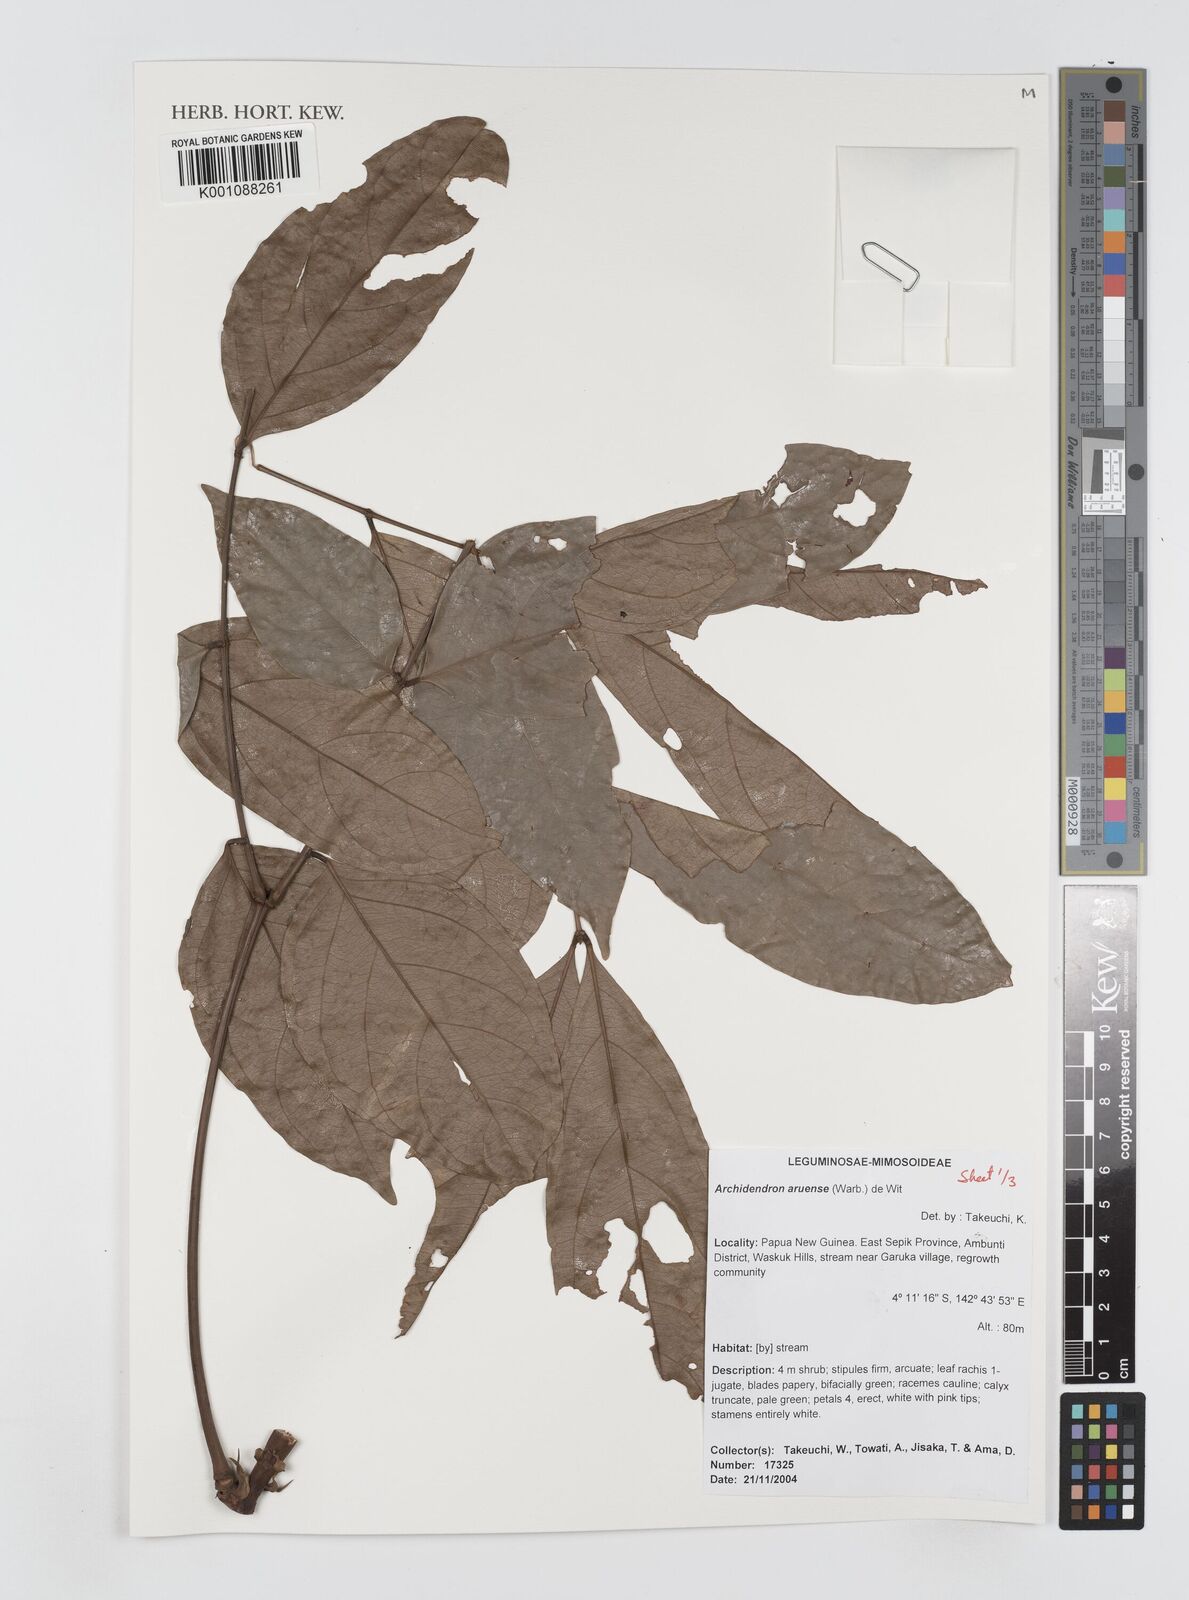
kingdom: Plantae
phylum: Tracheophyta
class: Magnoliopsida
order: Fabales
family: Fabaceae
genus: Archidendron
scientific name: Archidendron aruense
